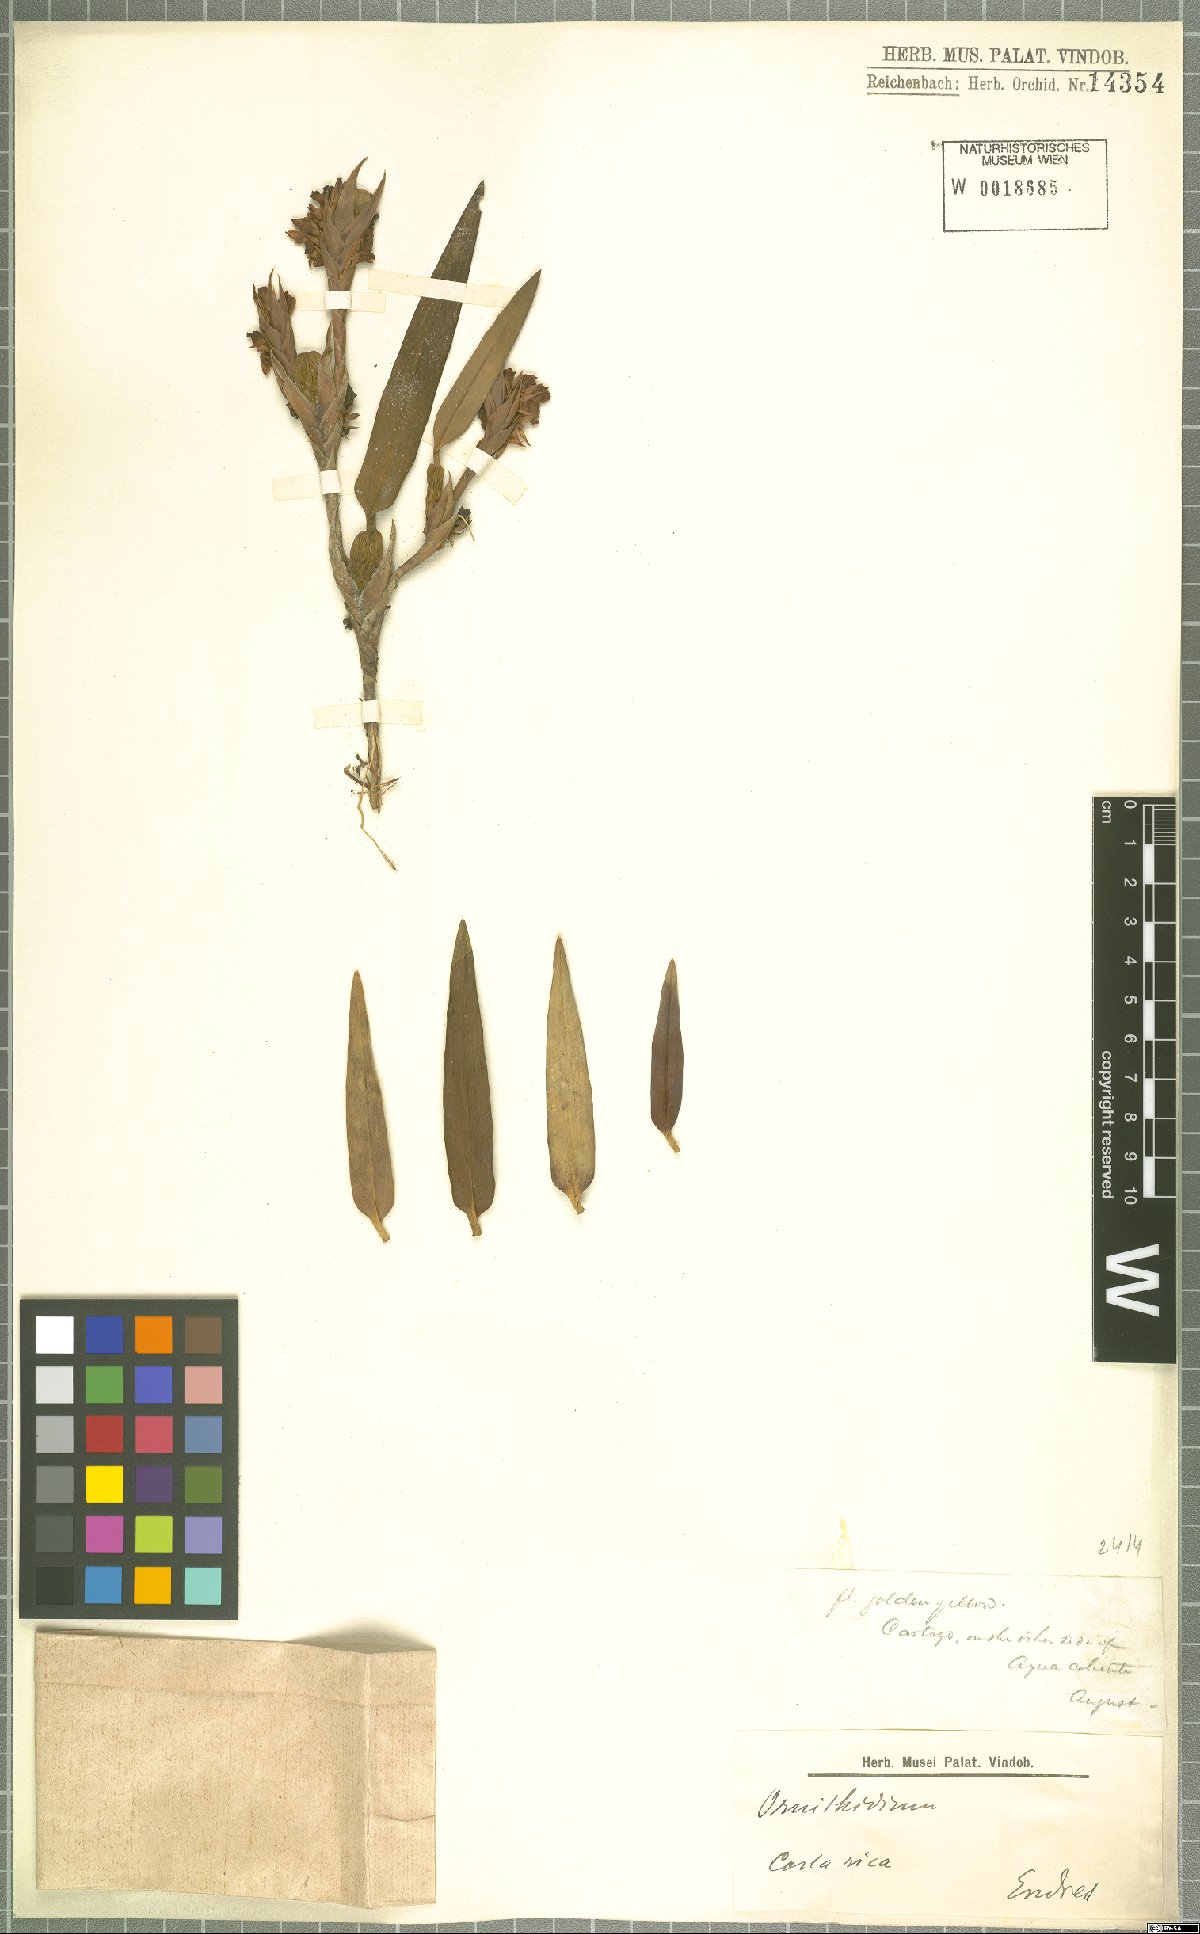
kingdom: Plantae
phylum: Tracheophyta
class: Liliopsida
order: Asparagales
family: Orchidaceae
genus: Maxillaria
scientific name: Maxillaria
